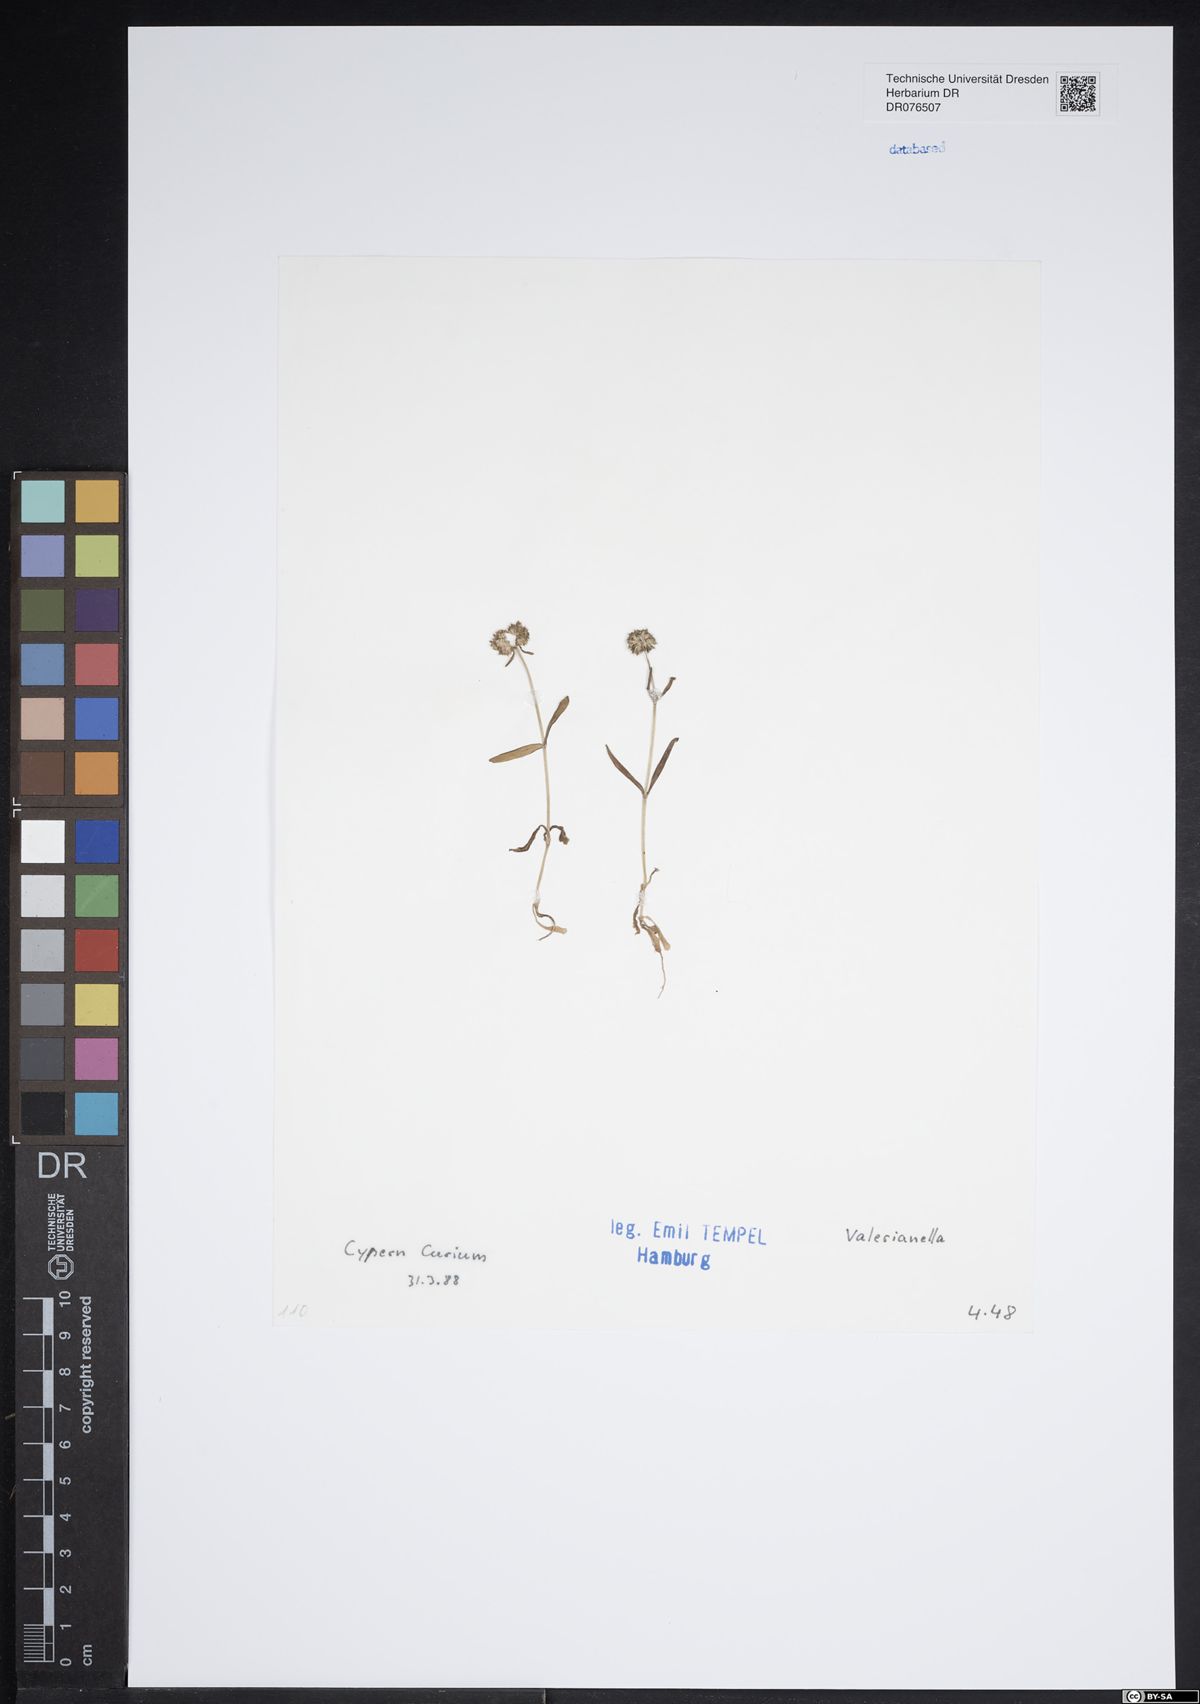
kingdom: Plantae
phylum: Tracheophyta
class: Magnoliopsida
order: Dipsacales
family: Caprifoliaceae
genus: Valerianella
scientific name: Valerianella
